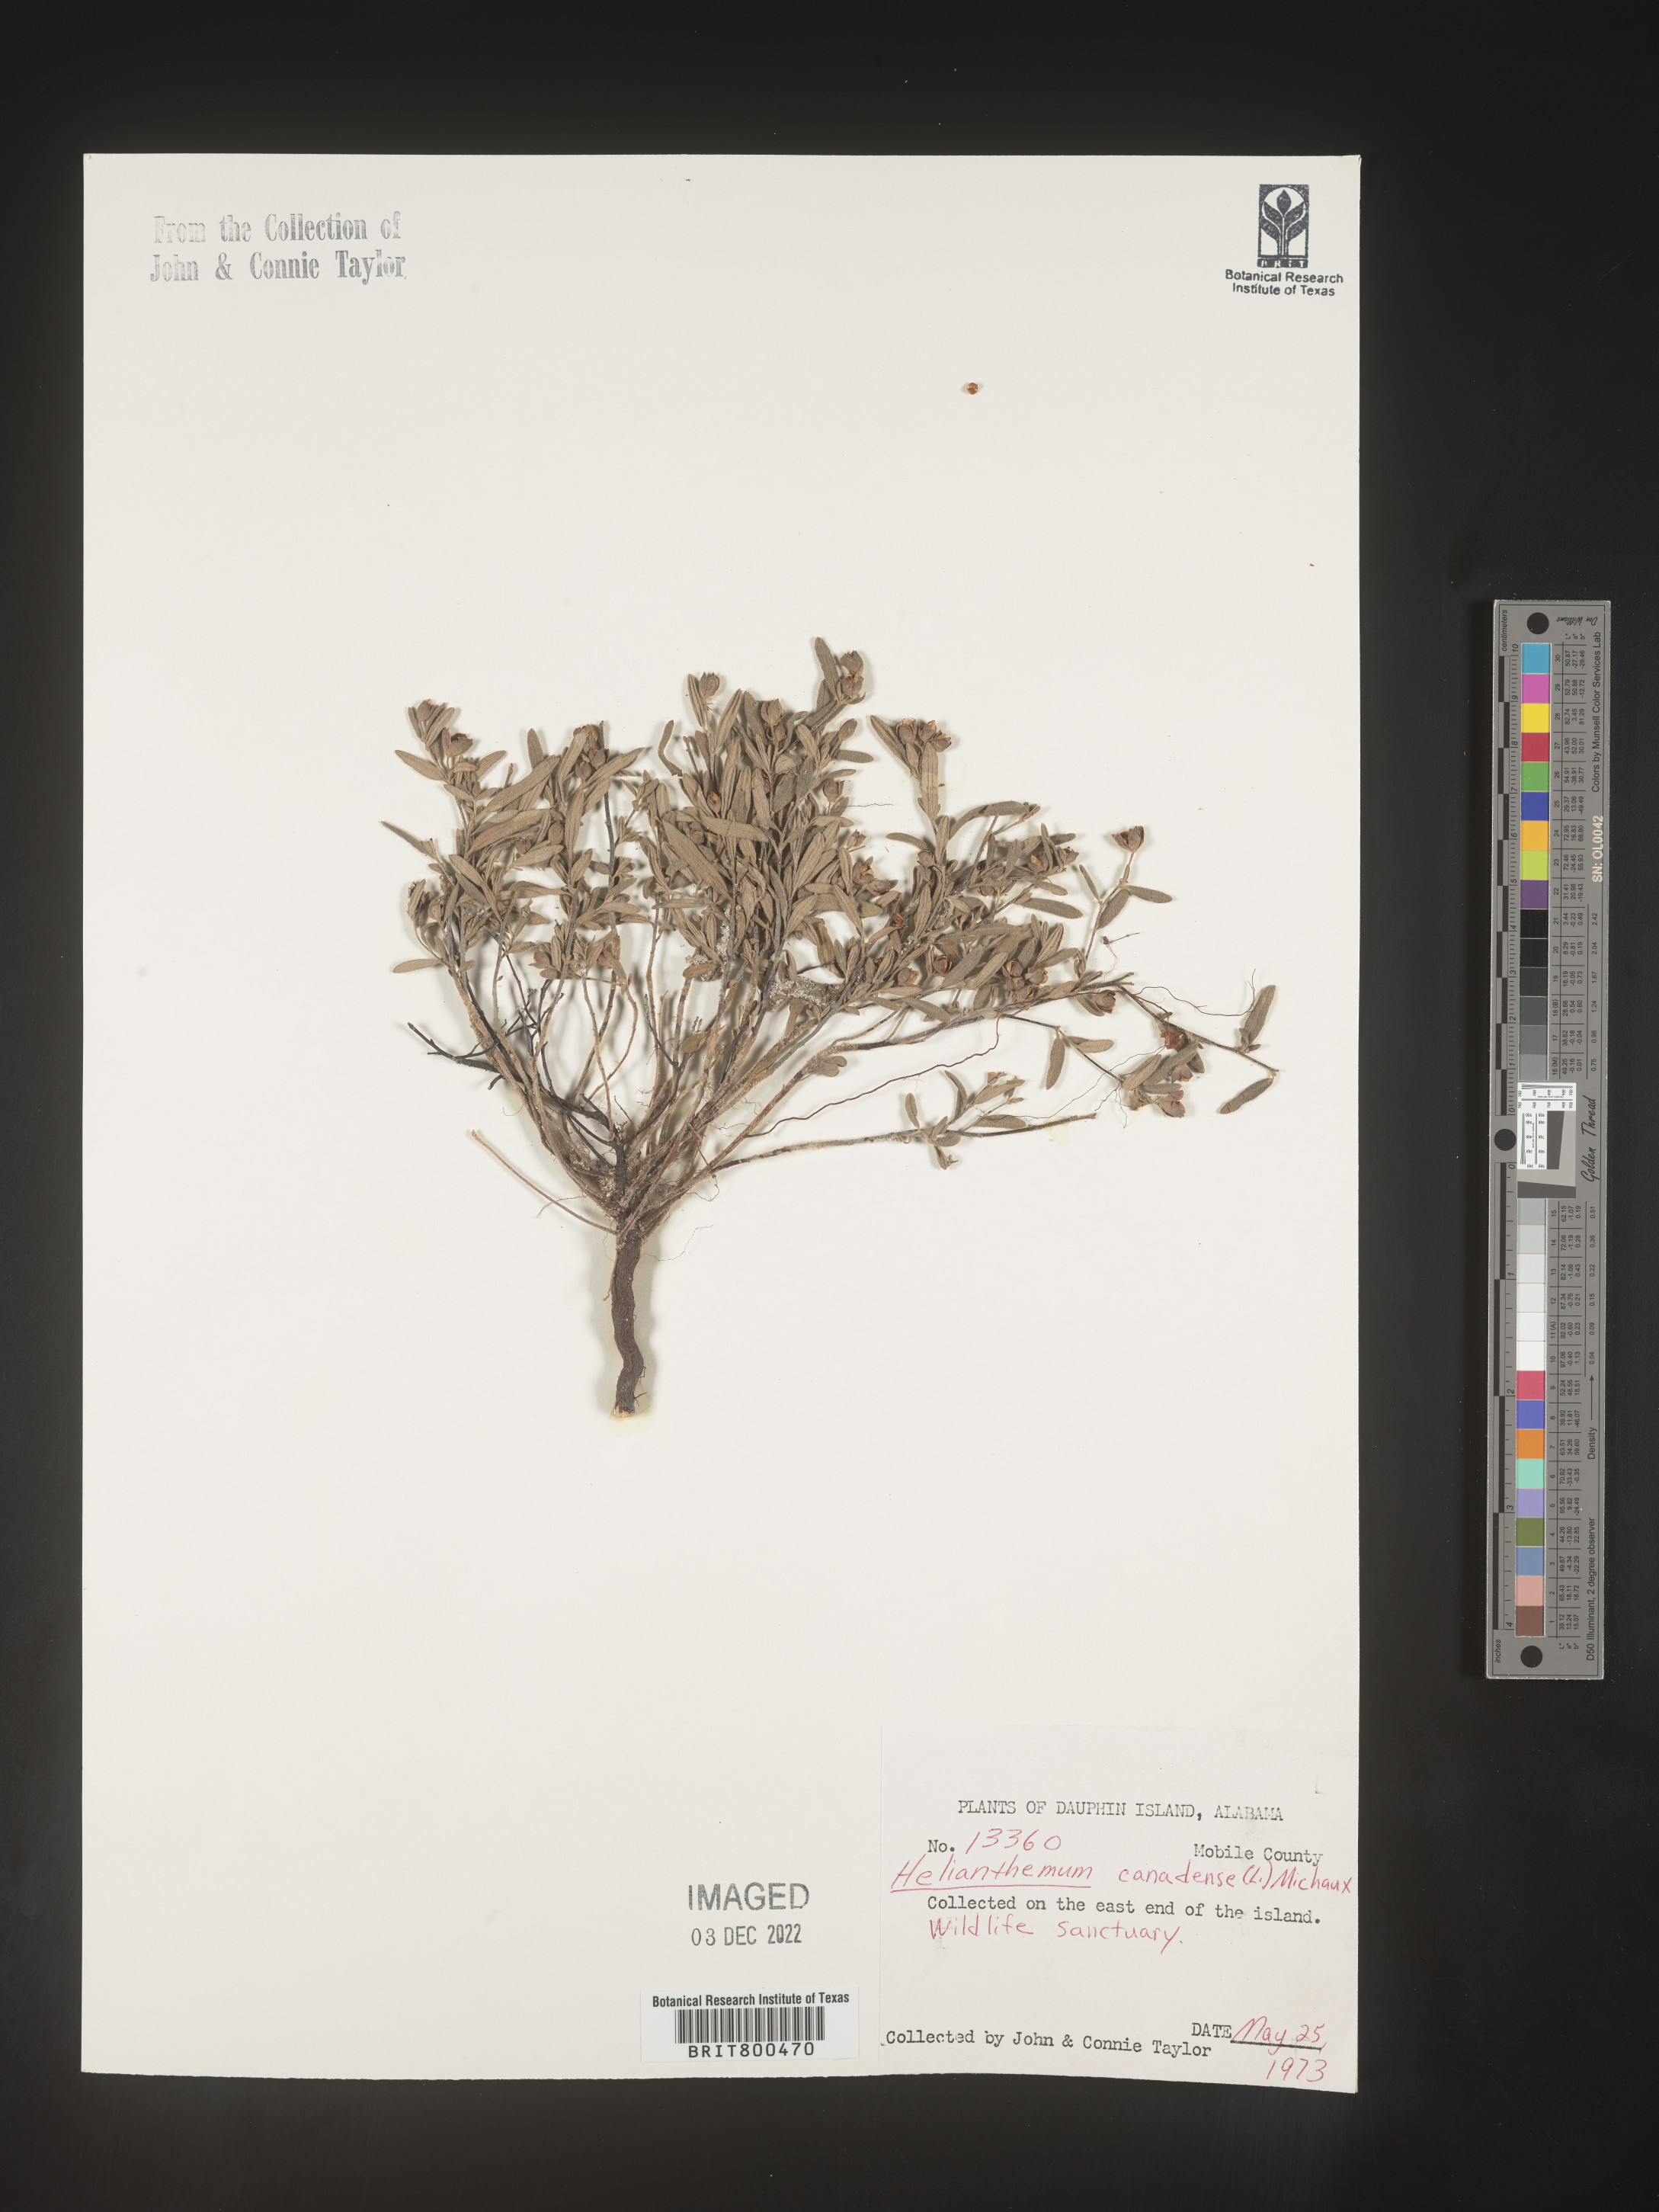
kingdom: Plantae
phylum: Tracheophyta
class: Magnoliopsida
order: Malvales
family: Cistaceae
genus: Crocanthemum
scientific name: Crocanthemum canadense
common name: Canada frostweed
